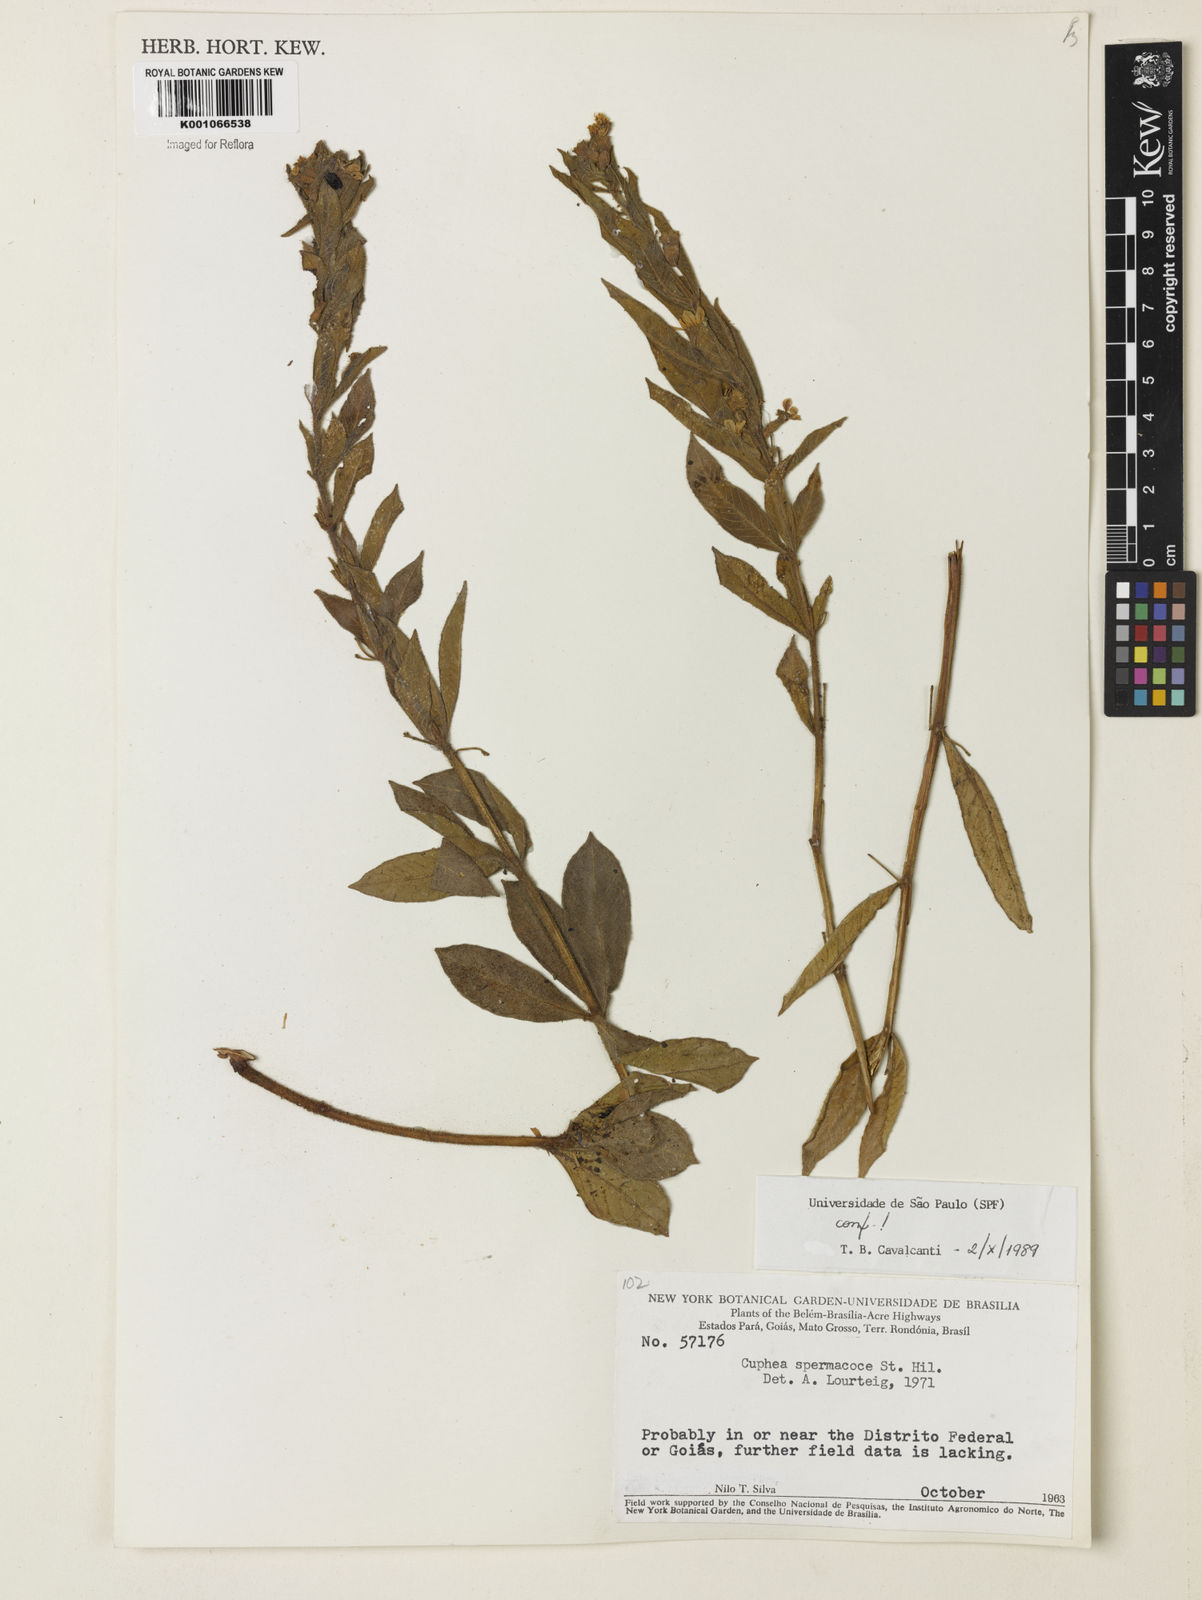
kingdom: Plantae
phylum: Tracheophyta
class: Magnoliopsida
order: Myrtales
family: Lythraceae
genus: Cuphea
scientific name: Cuphea spermacoce
